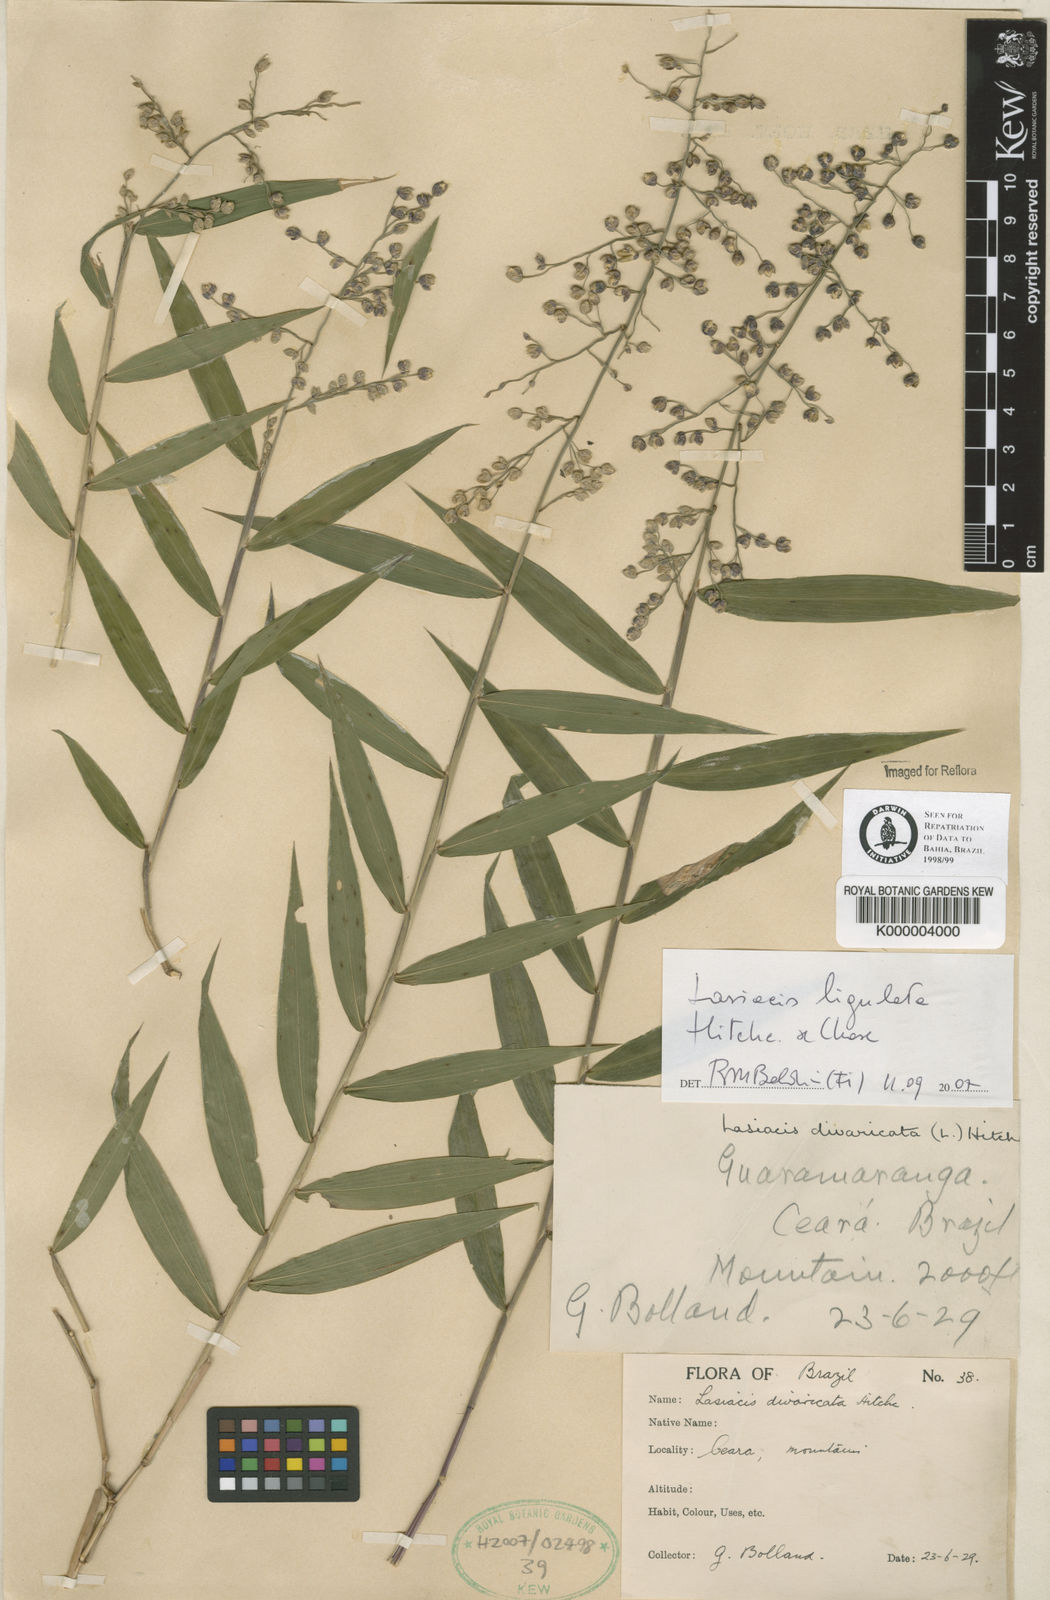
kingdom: Plantae
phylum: Tracheophyta
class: Liliopsida
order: Poales
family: Poaceae
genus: Lasiacis
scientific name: Lasiacis divaricata
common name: Smallcane
